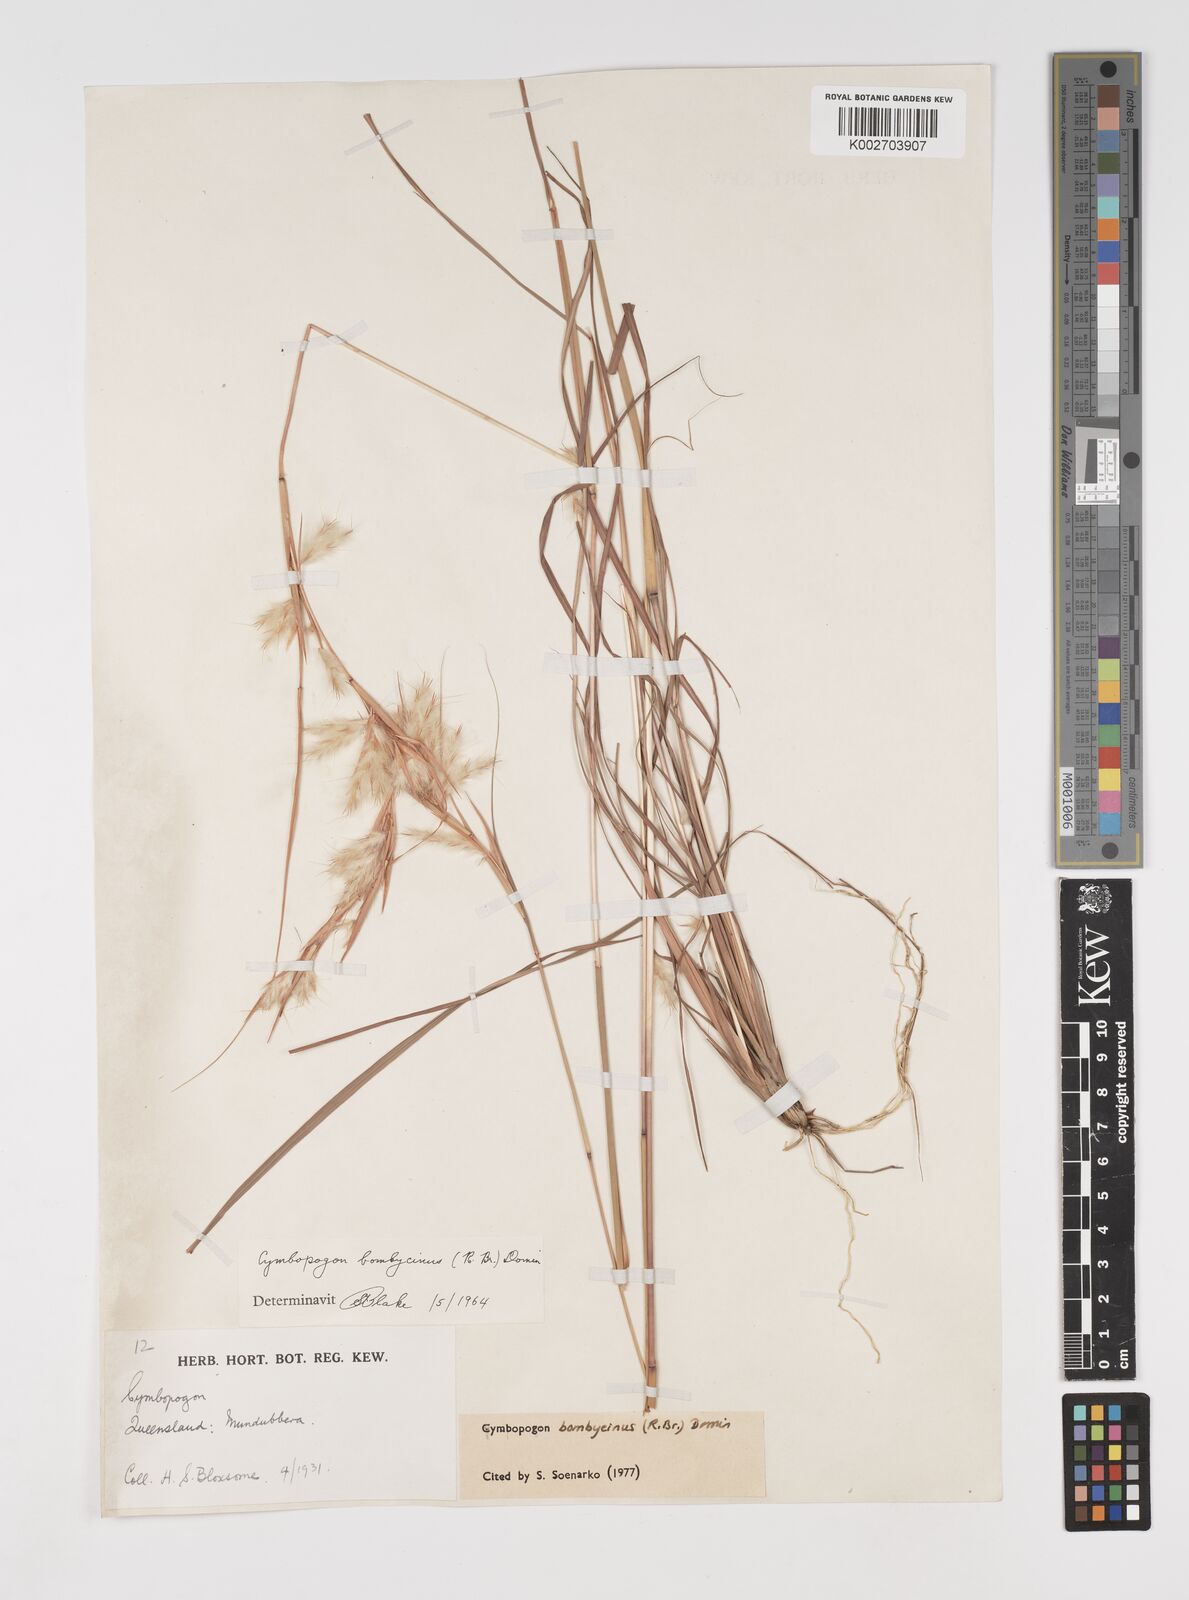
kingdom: Plantae
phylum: Tracheophyta
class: Liliopsida
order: Poales
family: Poaceae
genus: Cymbopogon
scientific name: Cymbopogon bombycinus
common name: Citronella grass
